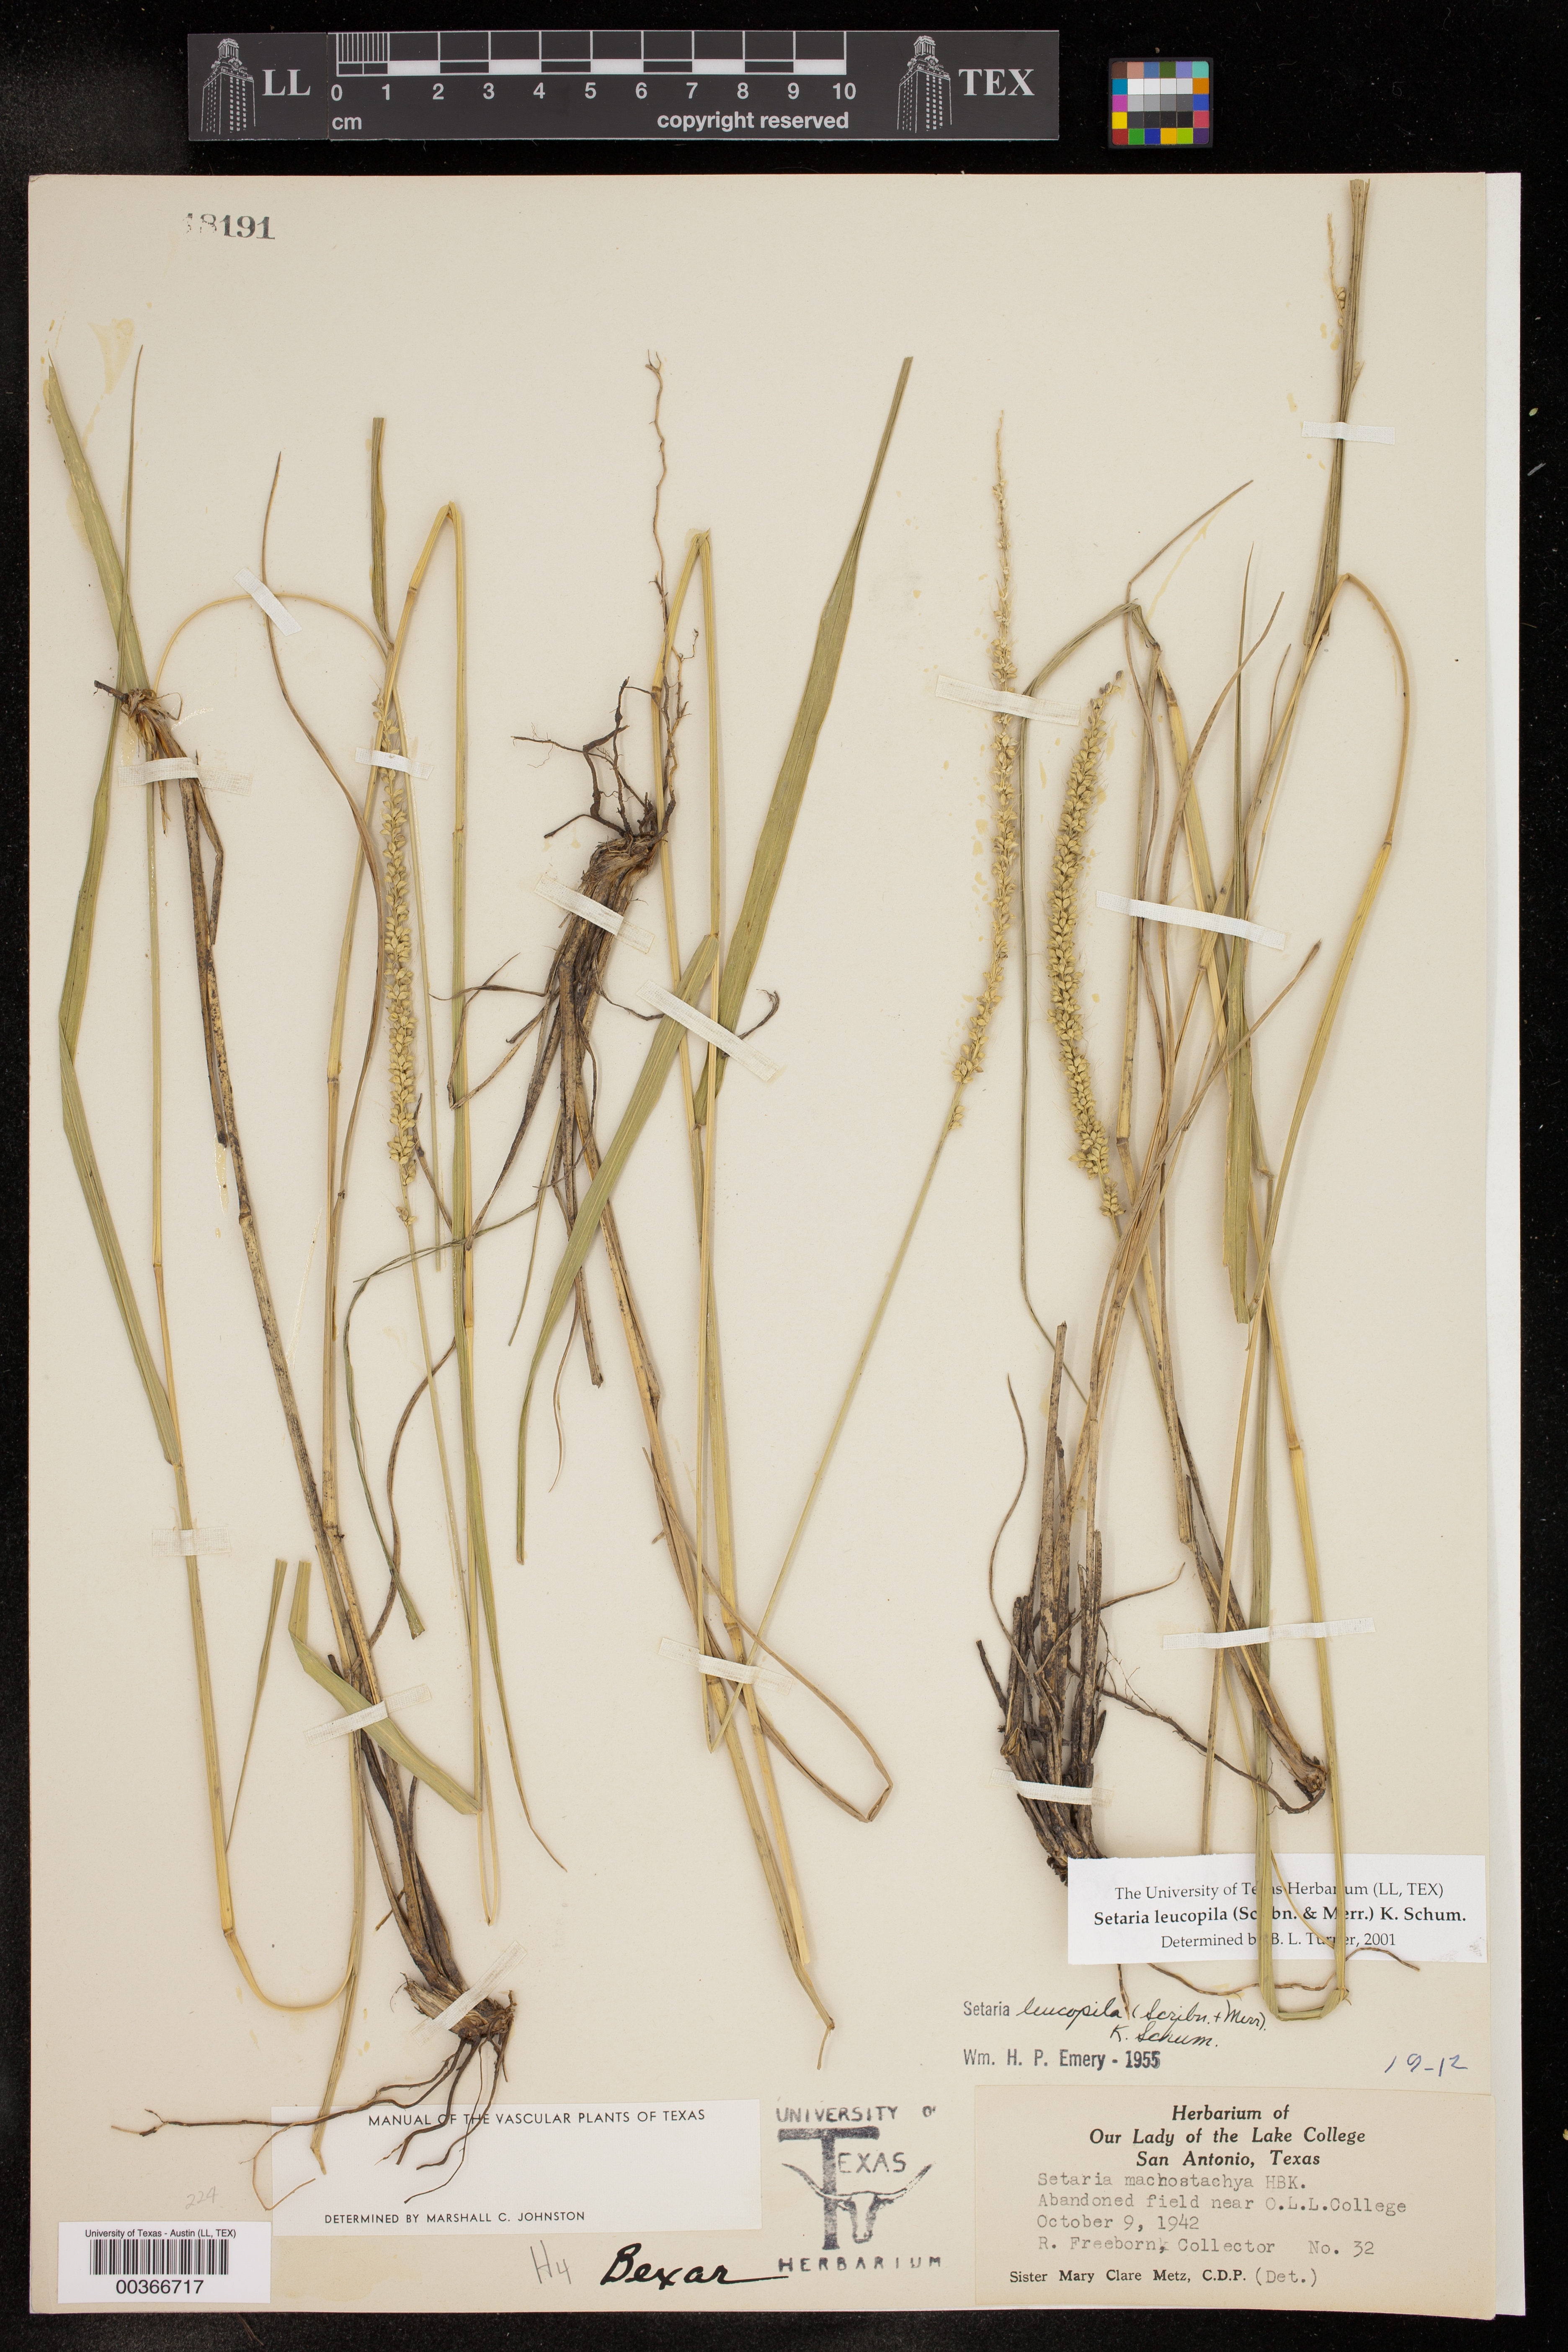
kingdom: Plantae
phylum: Tracheophyta
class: Liliopsida
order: Poales
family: Poaceae
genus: Setaria
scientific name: Setaria leucopila
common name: Plains bristle grass
